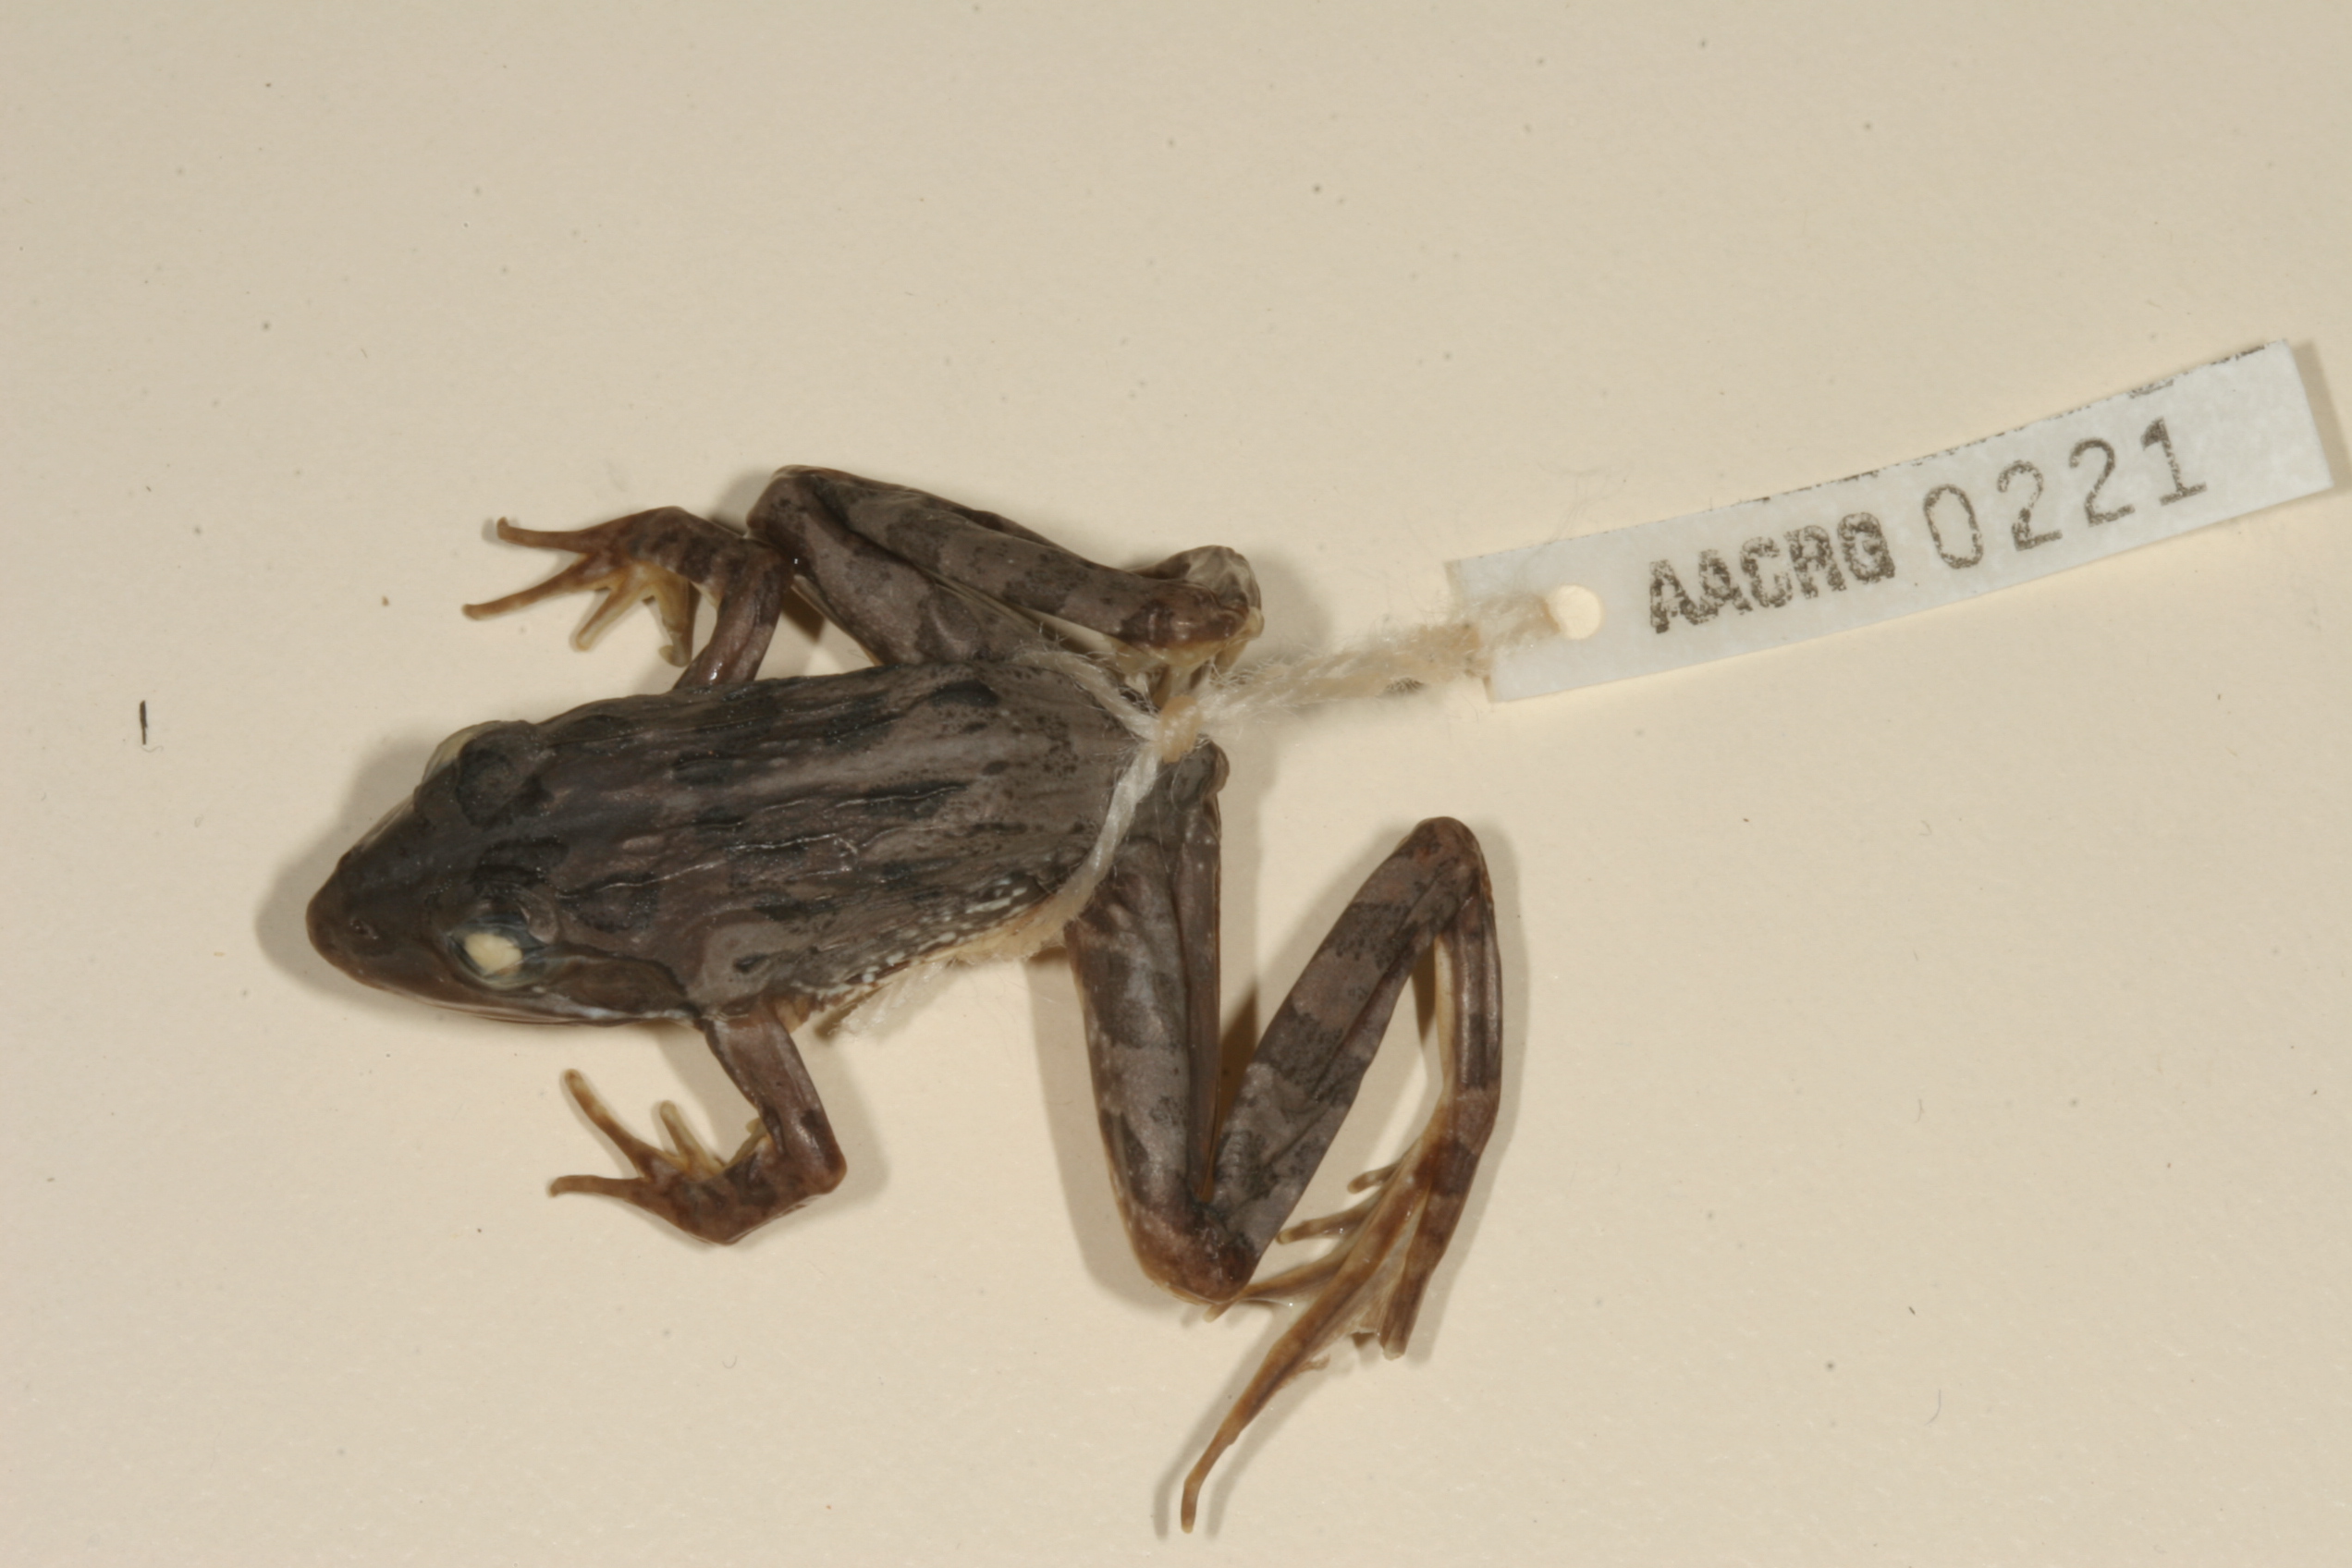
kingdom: Animalia
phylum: Chordata
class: Amphibia
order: Anura
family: Pyxicephalidae
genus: Amietia
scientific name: Amietia angolensis
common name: Dusky-throated frog
